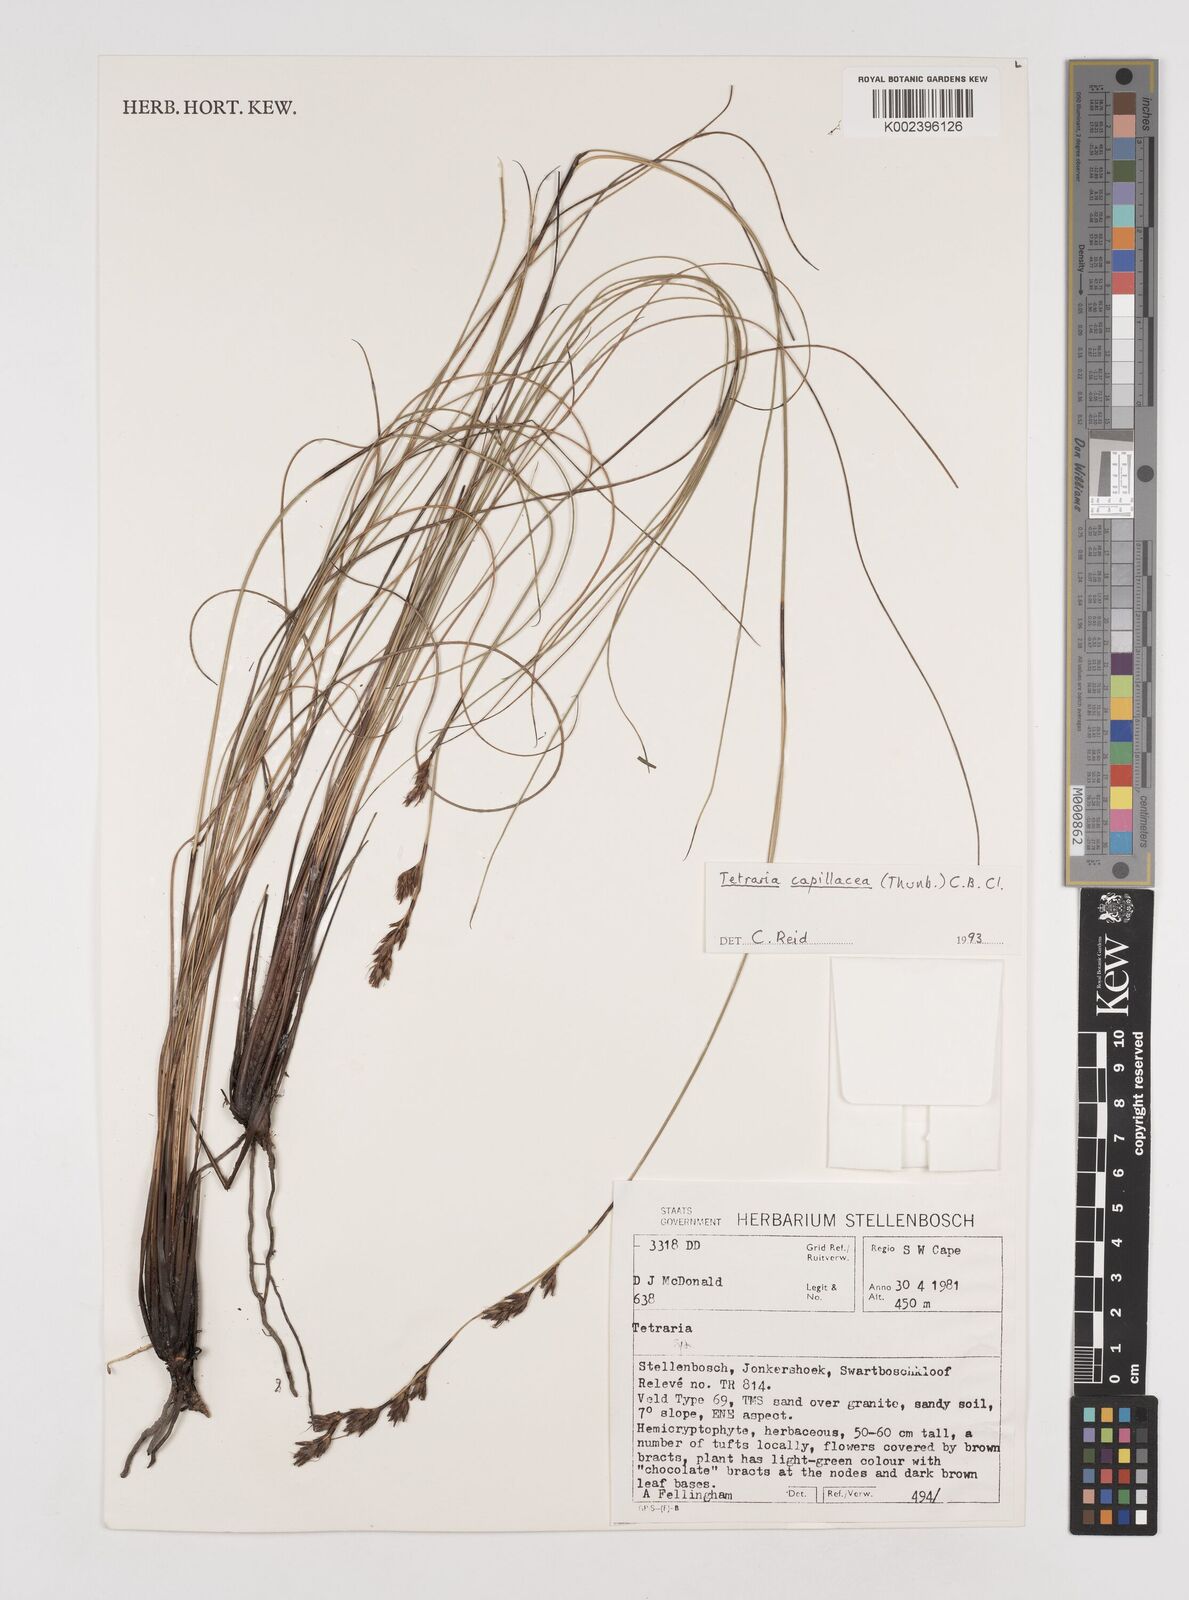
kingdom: Plantae
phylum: Tracheophyta
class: Liliopsida
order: Poales
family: Cyperaceae
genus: Tetraria
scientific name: Tetraria capillacea
